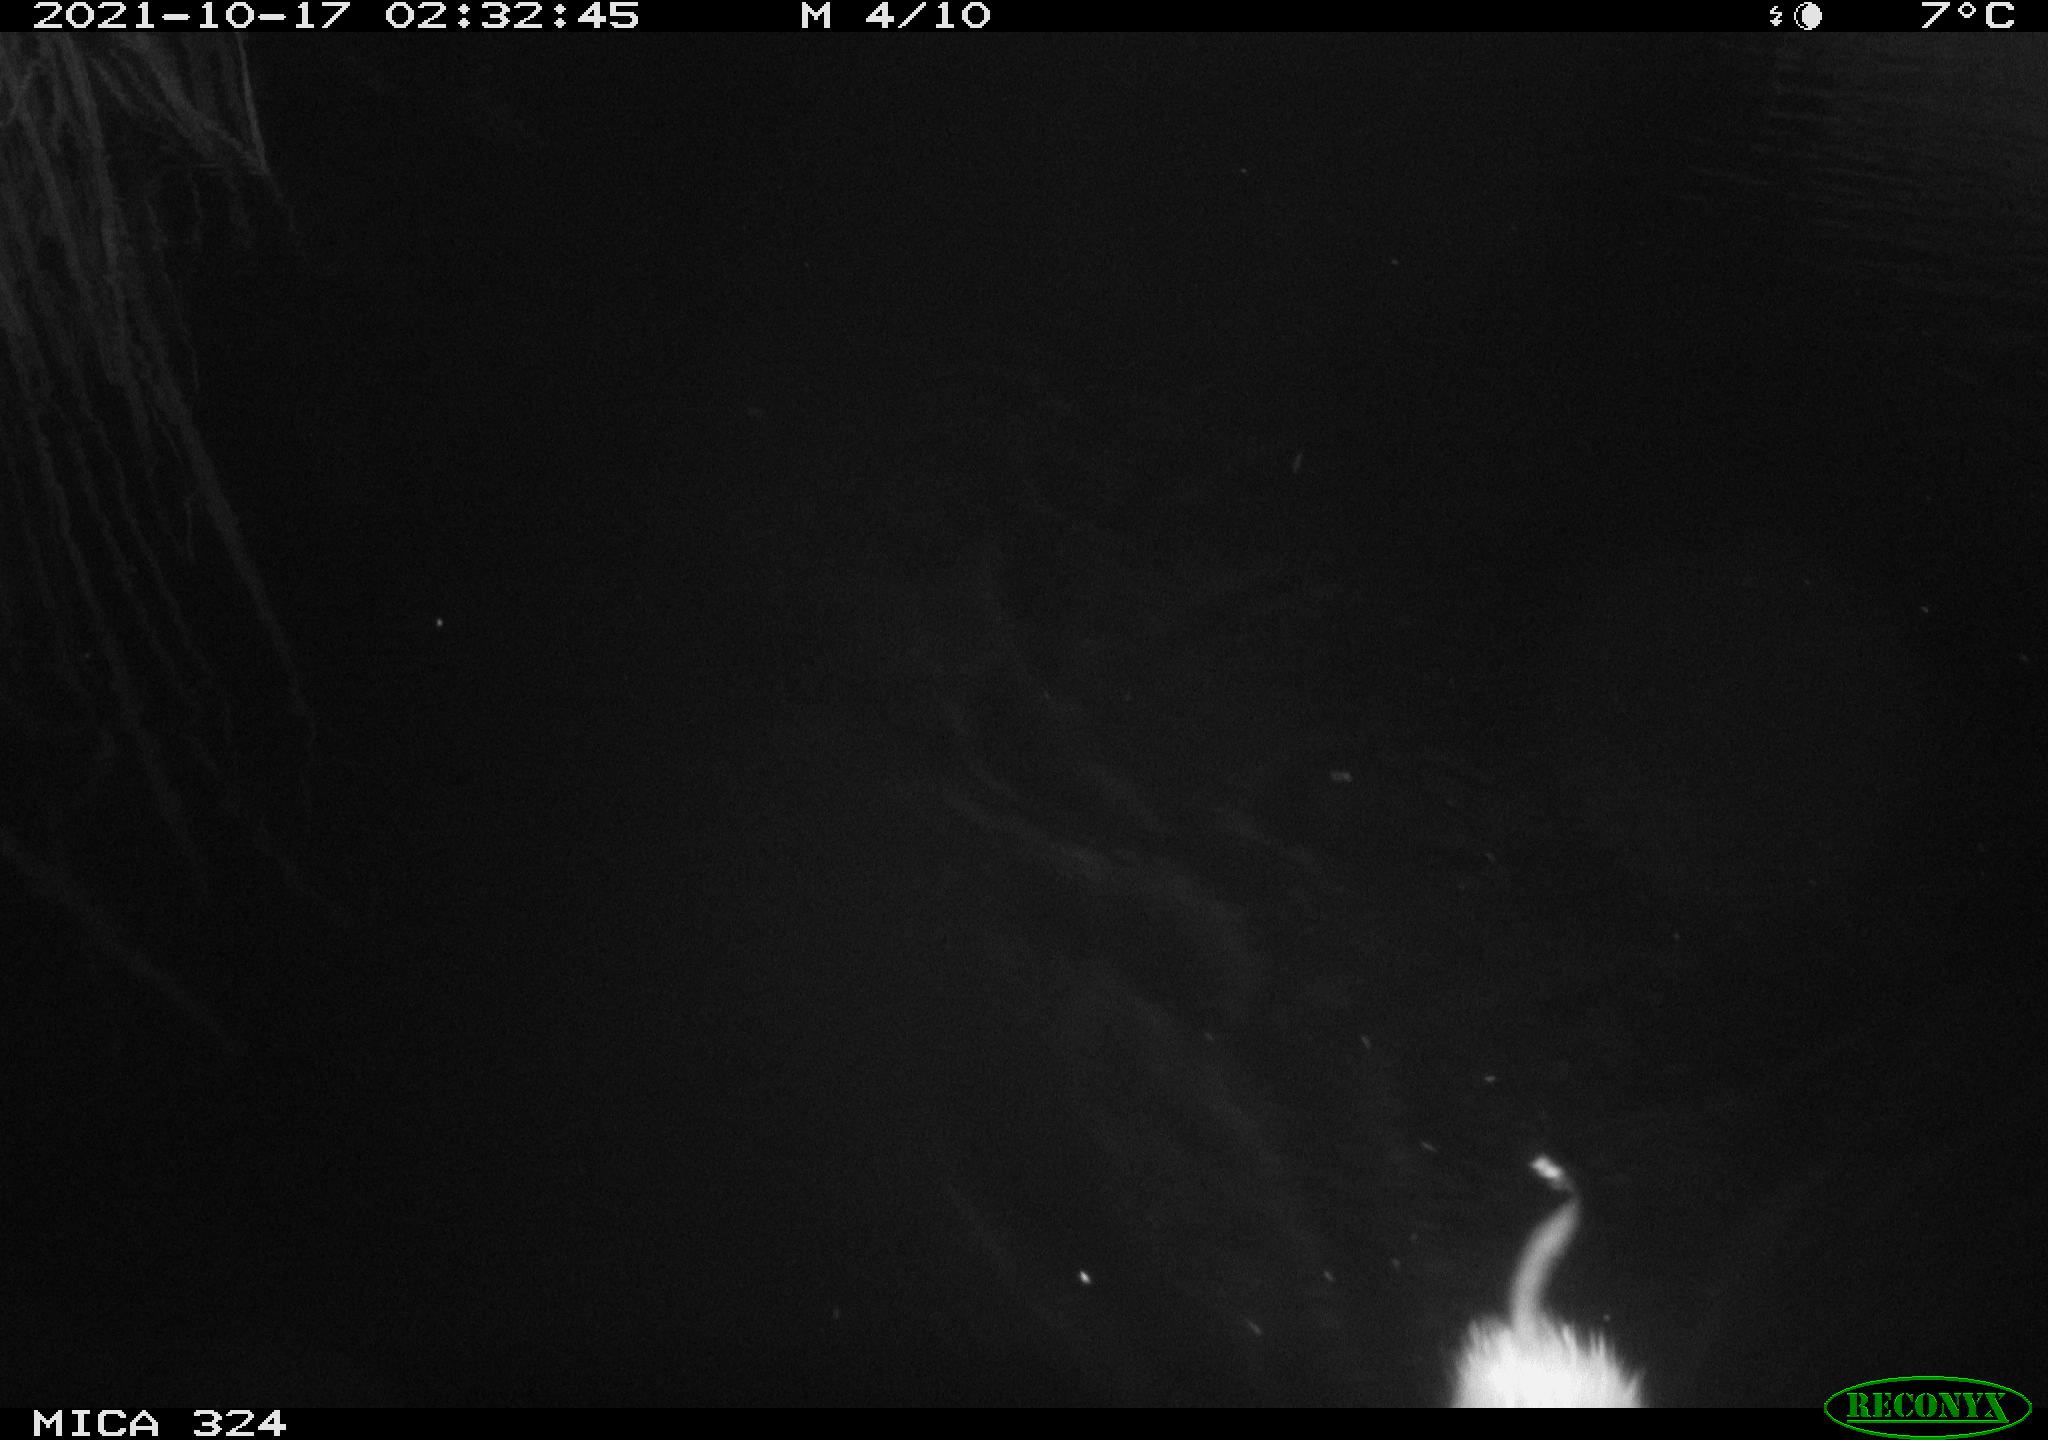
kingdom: Animalia
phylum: Chordata
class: Mammalia
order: Rodentia
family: Cricetidae
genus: Ondatra
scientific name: Ondatra zibethicus
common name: Muskrat
